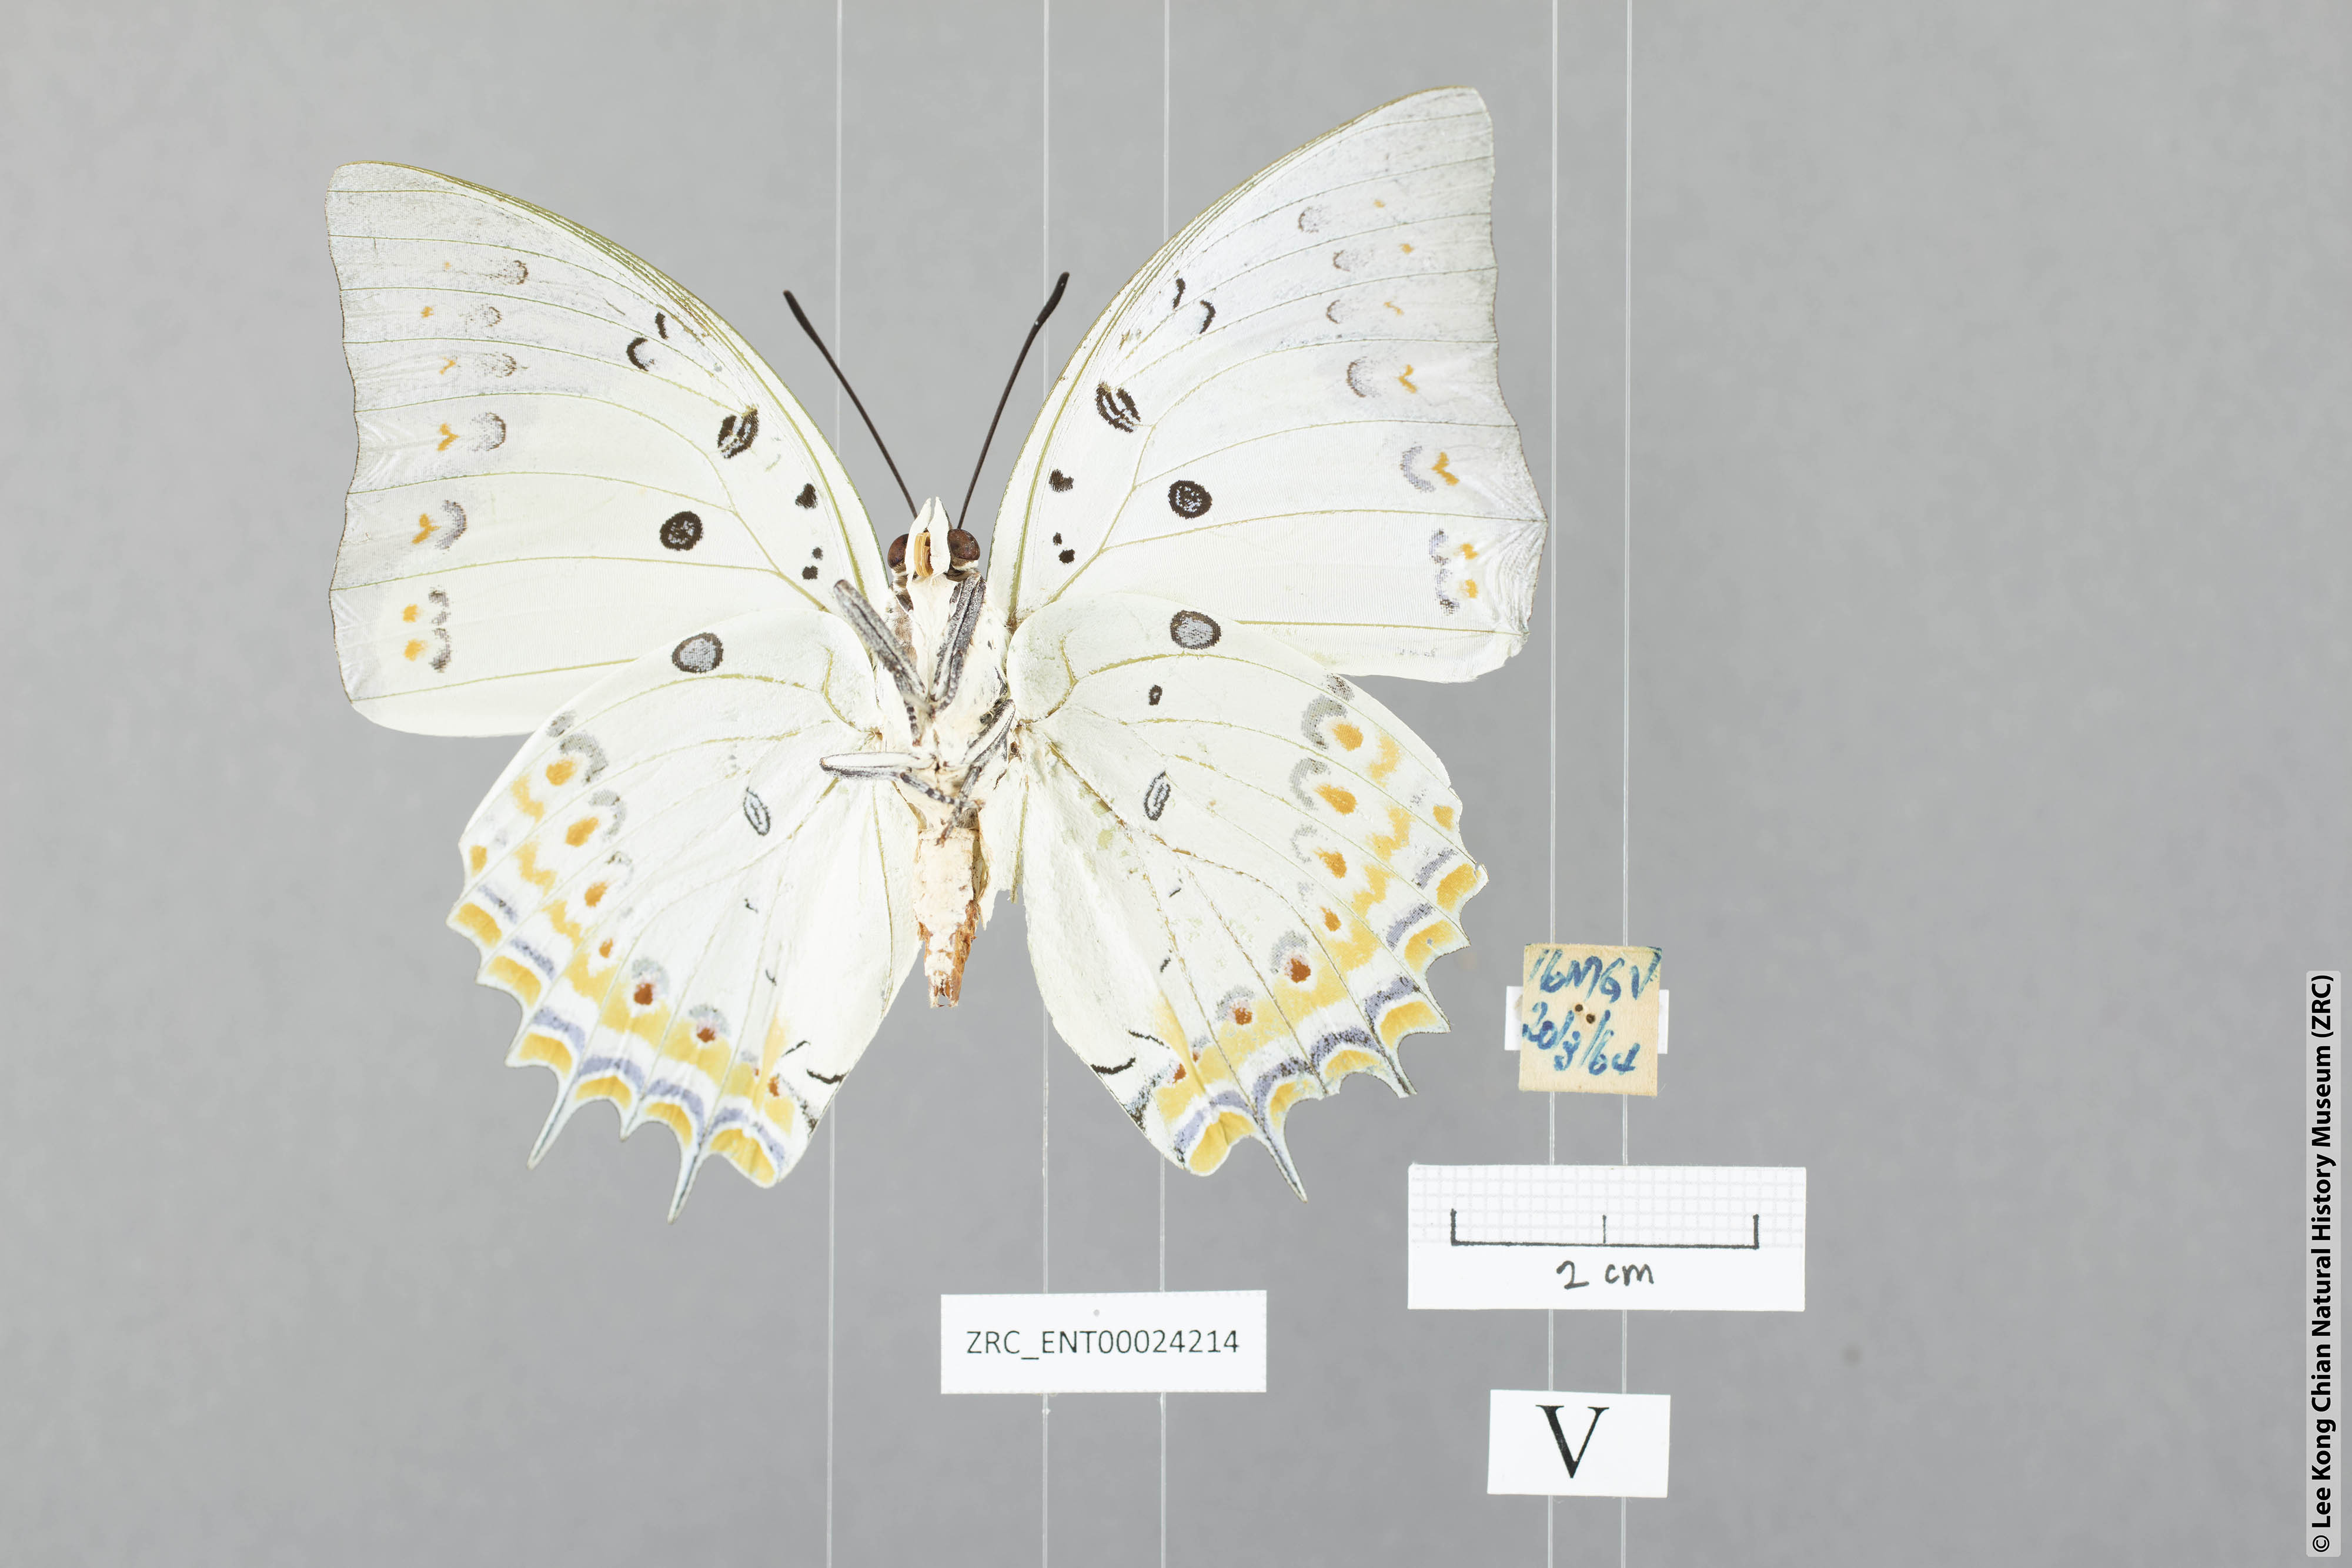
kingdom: Animalia
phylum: Arthropoda
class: Insecta
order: Lepidoptera
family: Nymphalidae
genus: Polyura
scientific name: Polyura delphis
